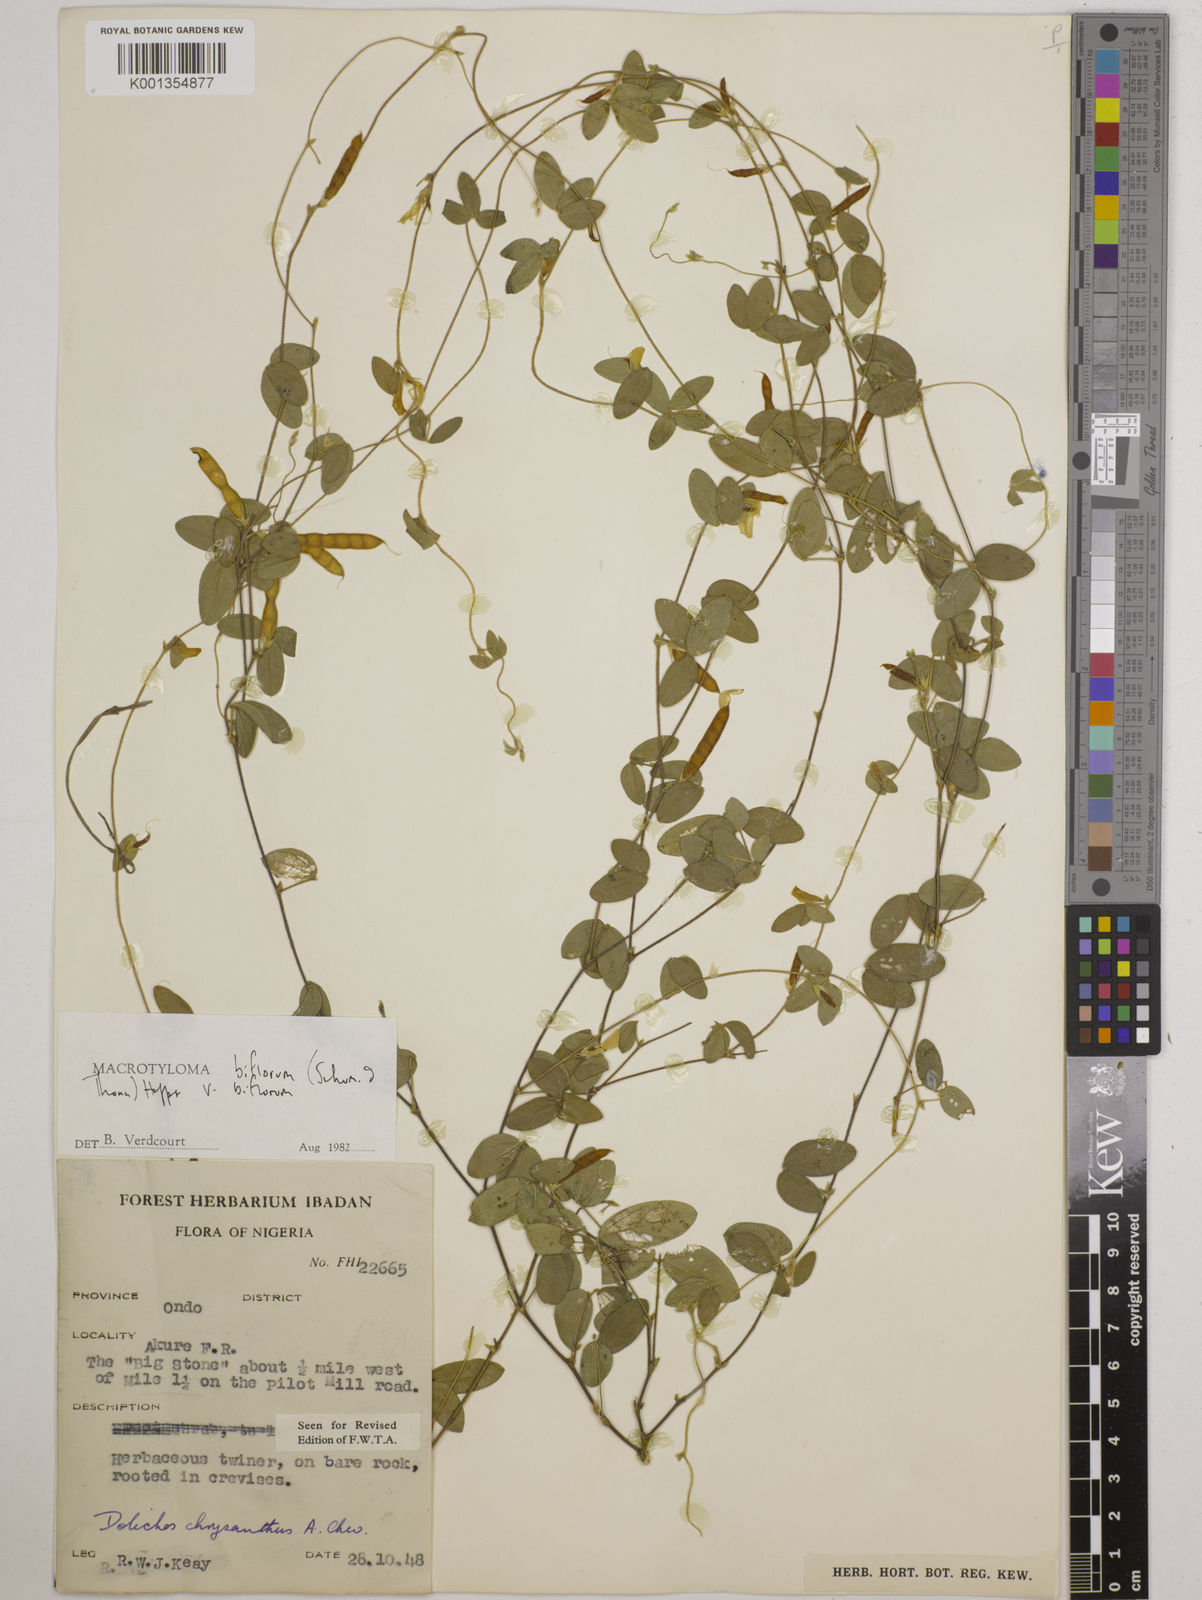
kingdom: Plantae
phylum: Tracheophyta
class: Magnoliopsida
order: Fabales
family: Fabaceae
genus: Macrotyloma
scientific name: Macrotyloma biflorum
